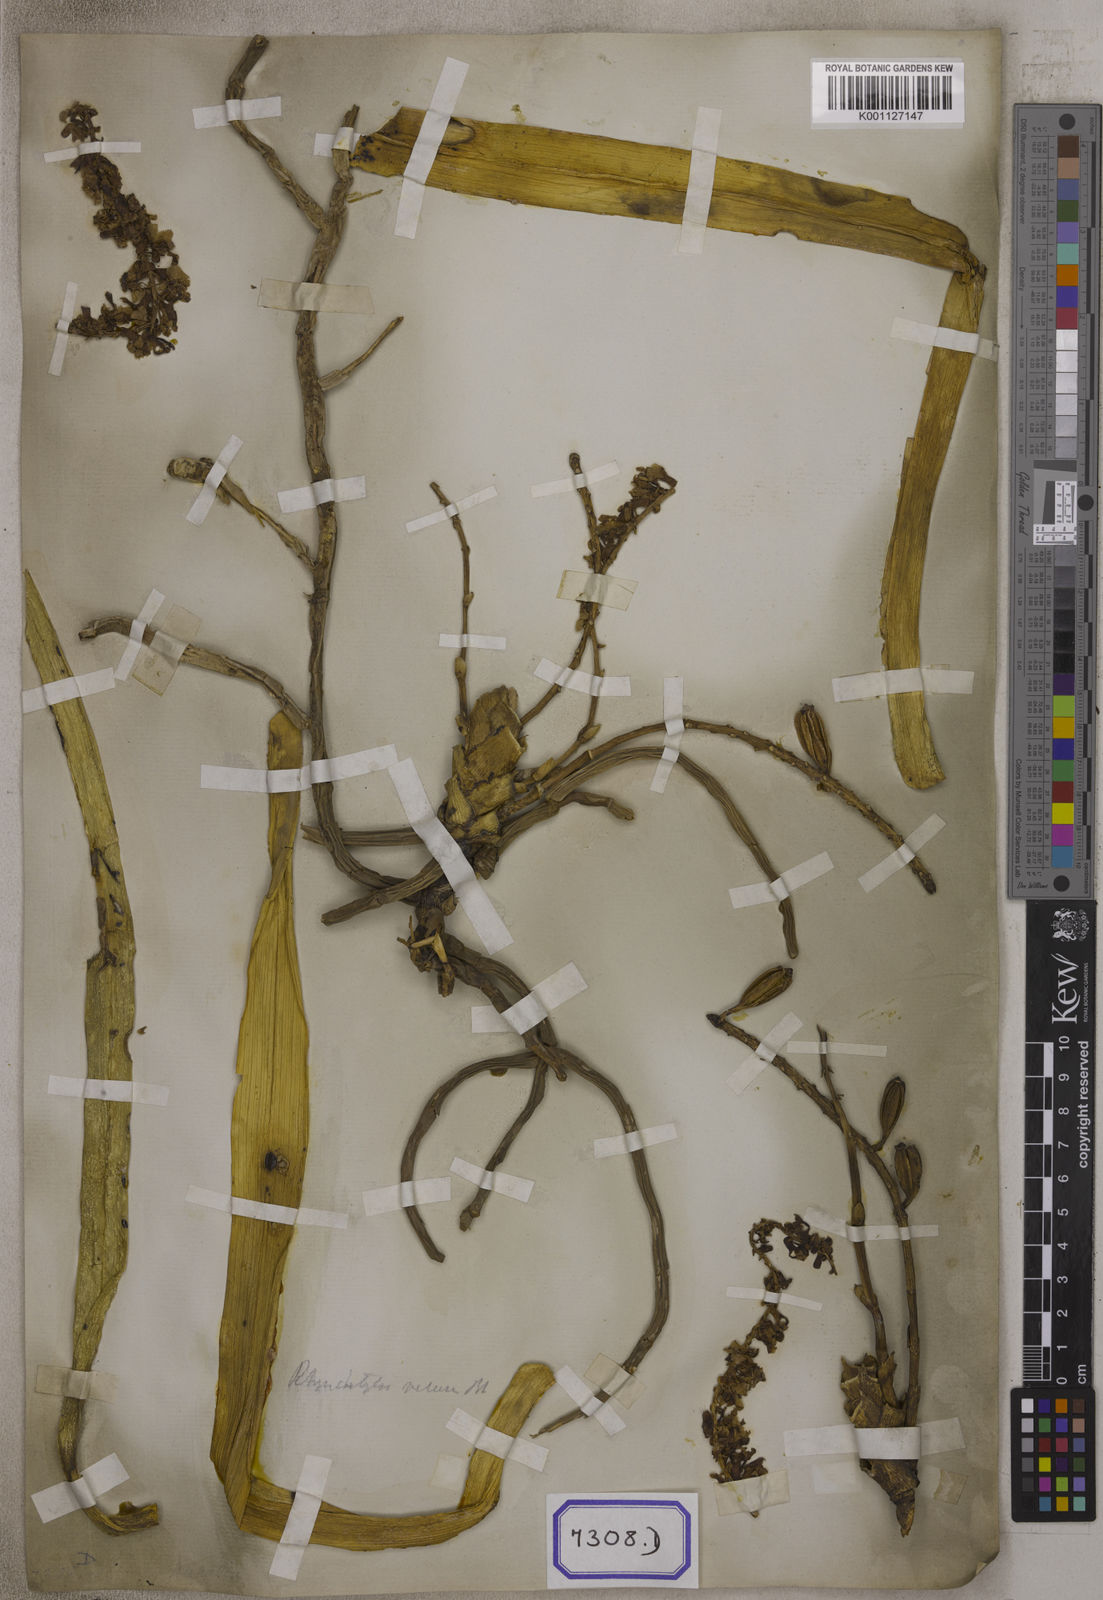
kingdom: Plantae
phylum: Tracheophyta
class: Liliopsida
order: Asparagales
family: Orchidaceae
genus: Saccolabium
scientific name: Saccolabium
